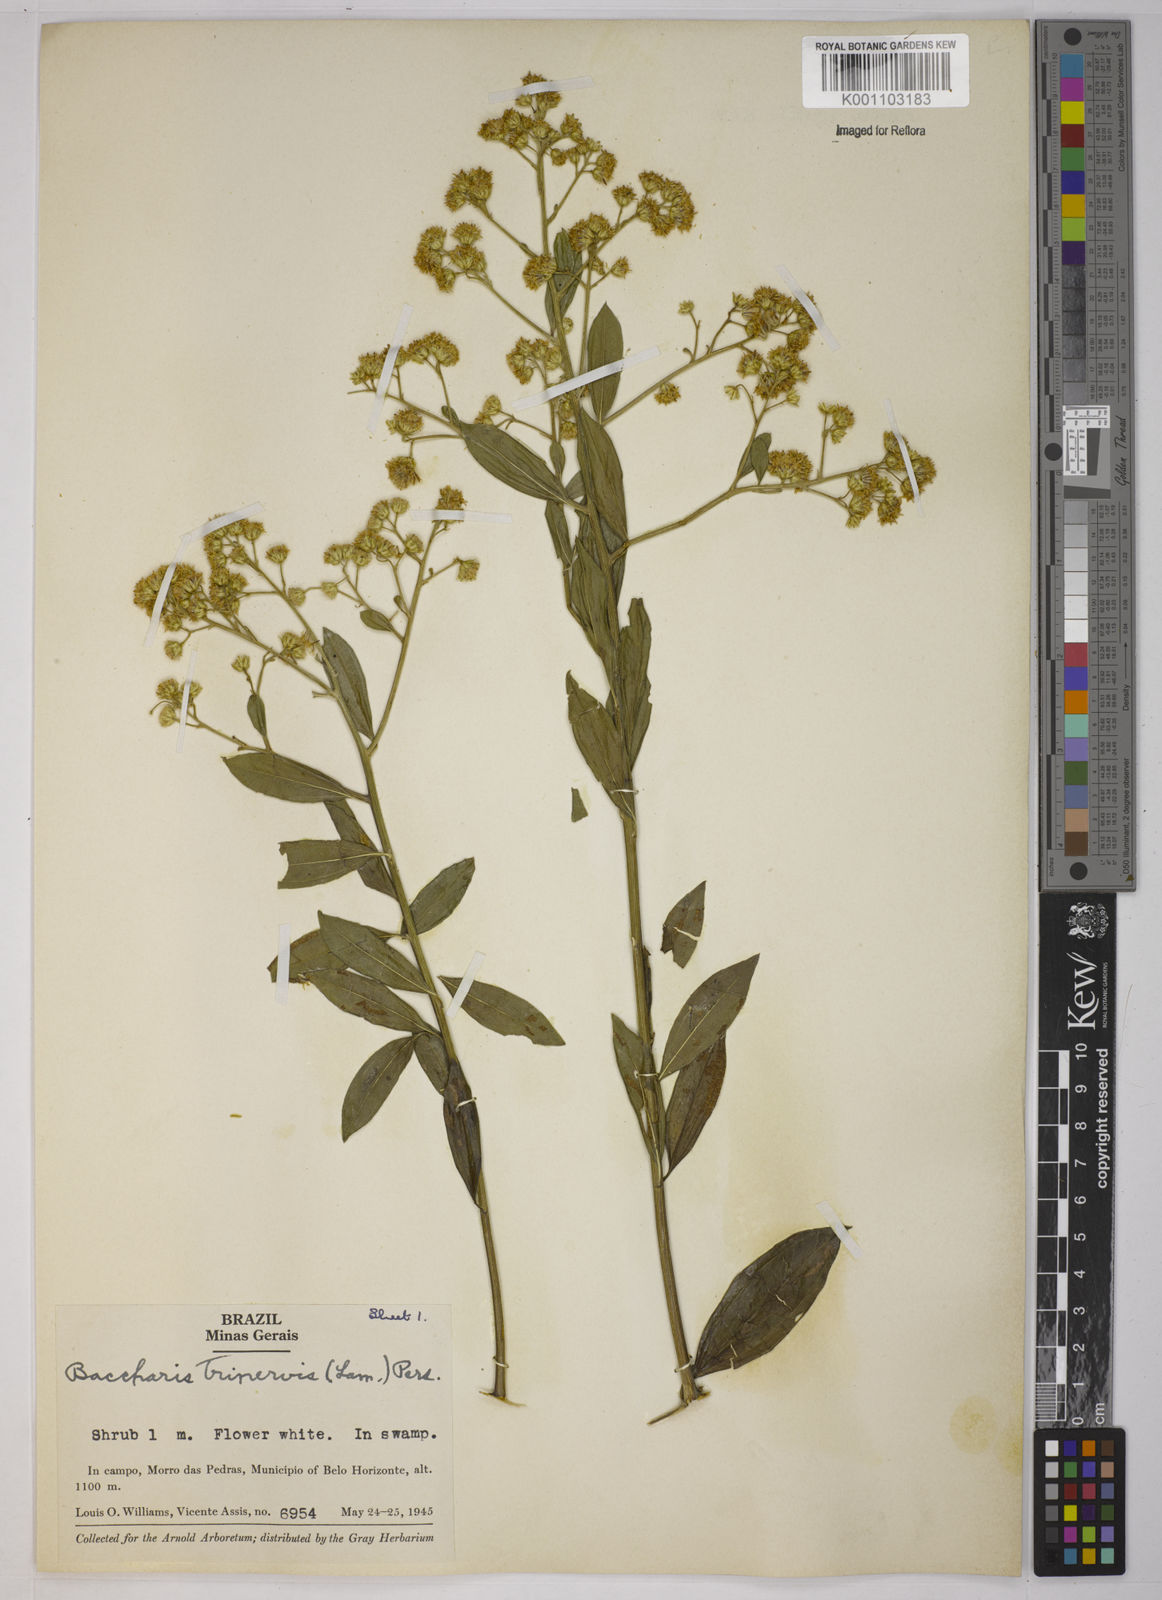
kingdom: Plantae
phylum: Tracheophyta
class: Magnoliopsida
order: Asterales
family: Asteraceae
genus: Baccharis
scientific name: Baccharis trinervis
